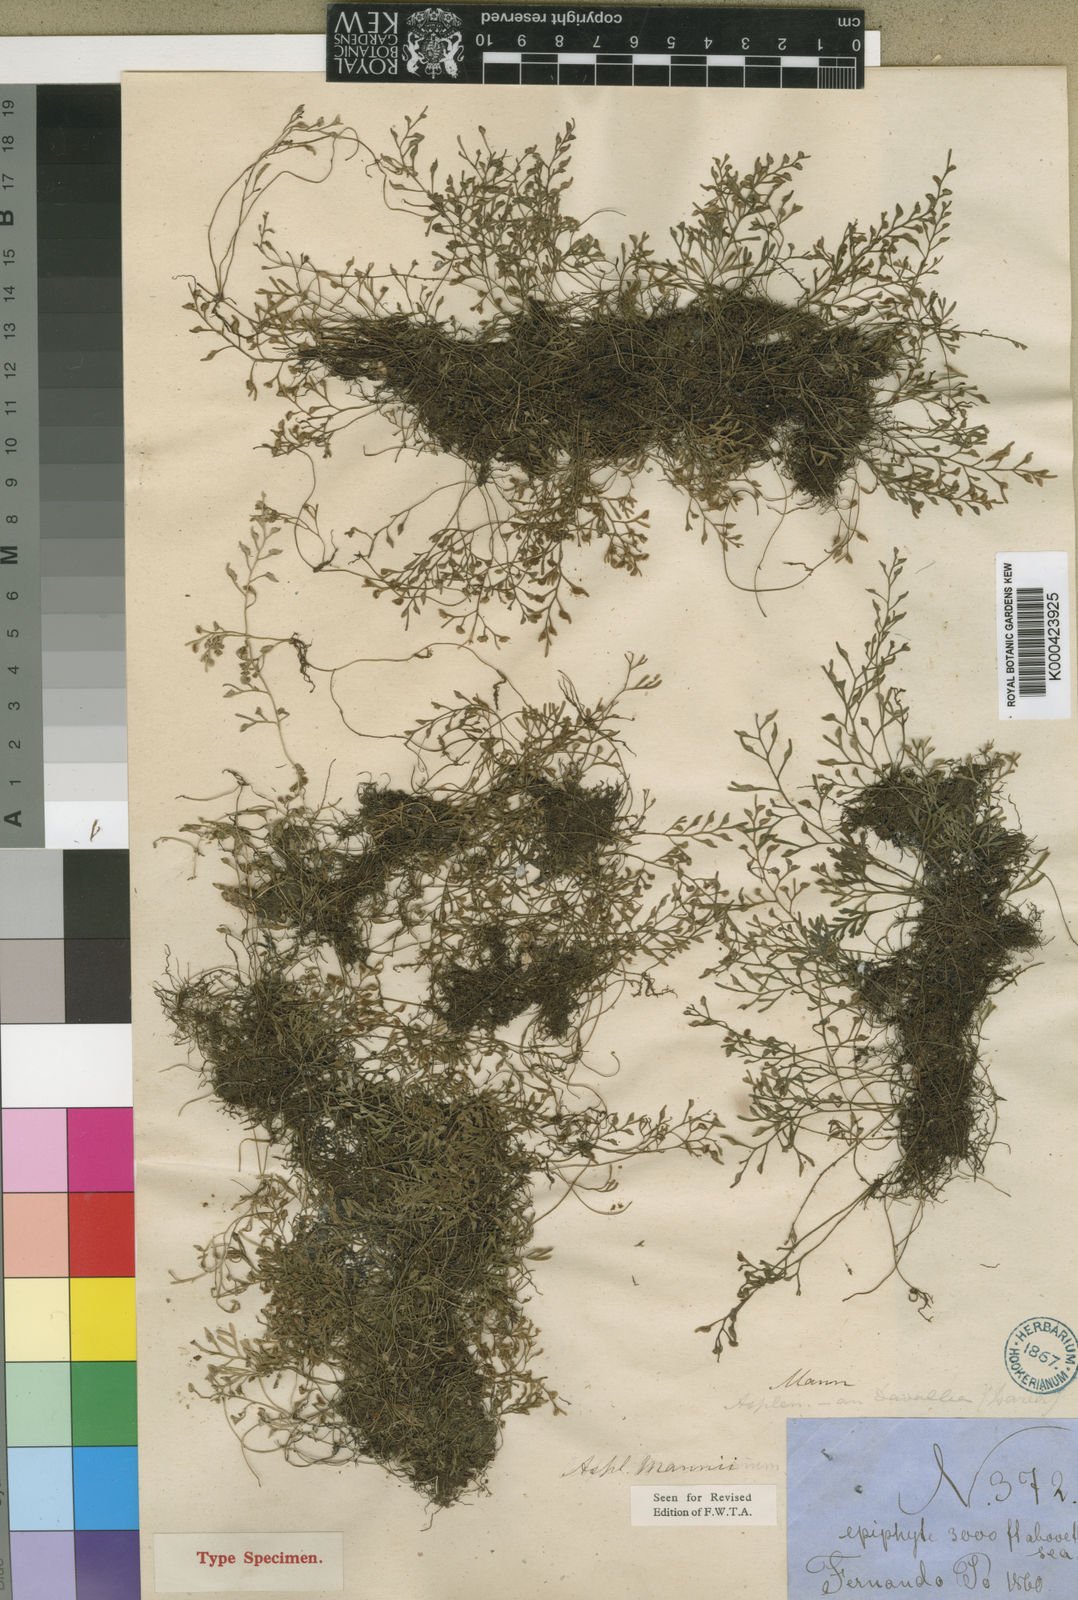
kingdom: Plantae
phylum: Tracheophyta
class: Polypodiopsida
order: Polypodiales
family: Aspleniaceae
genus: Asplenium
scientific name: Asplenium mannii
